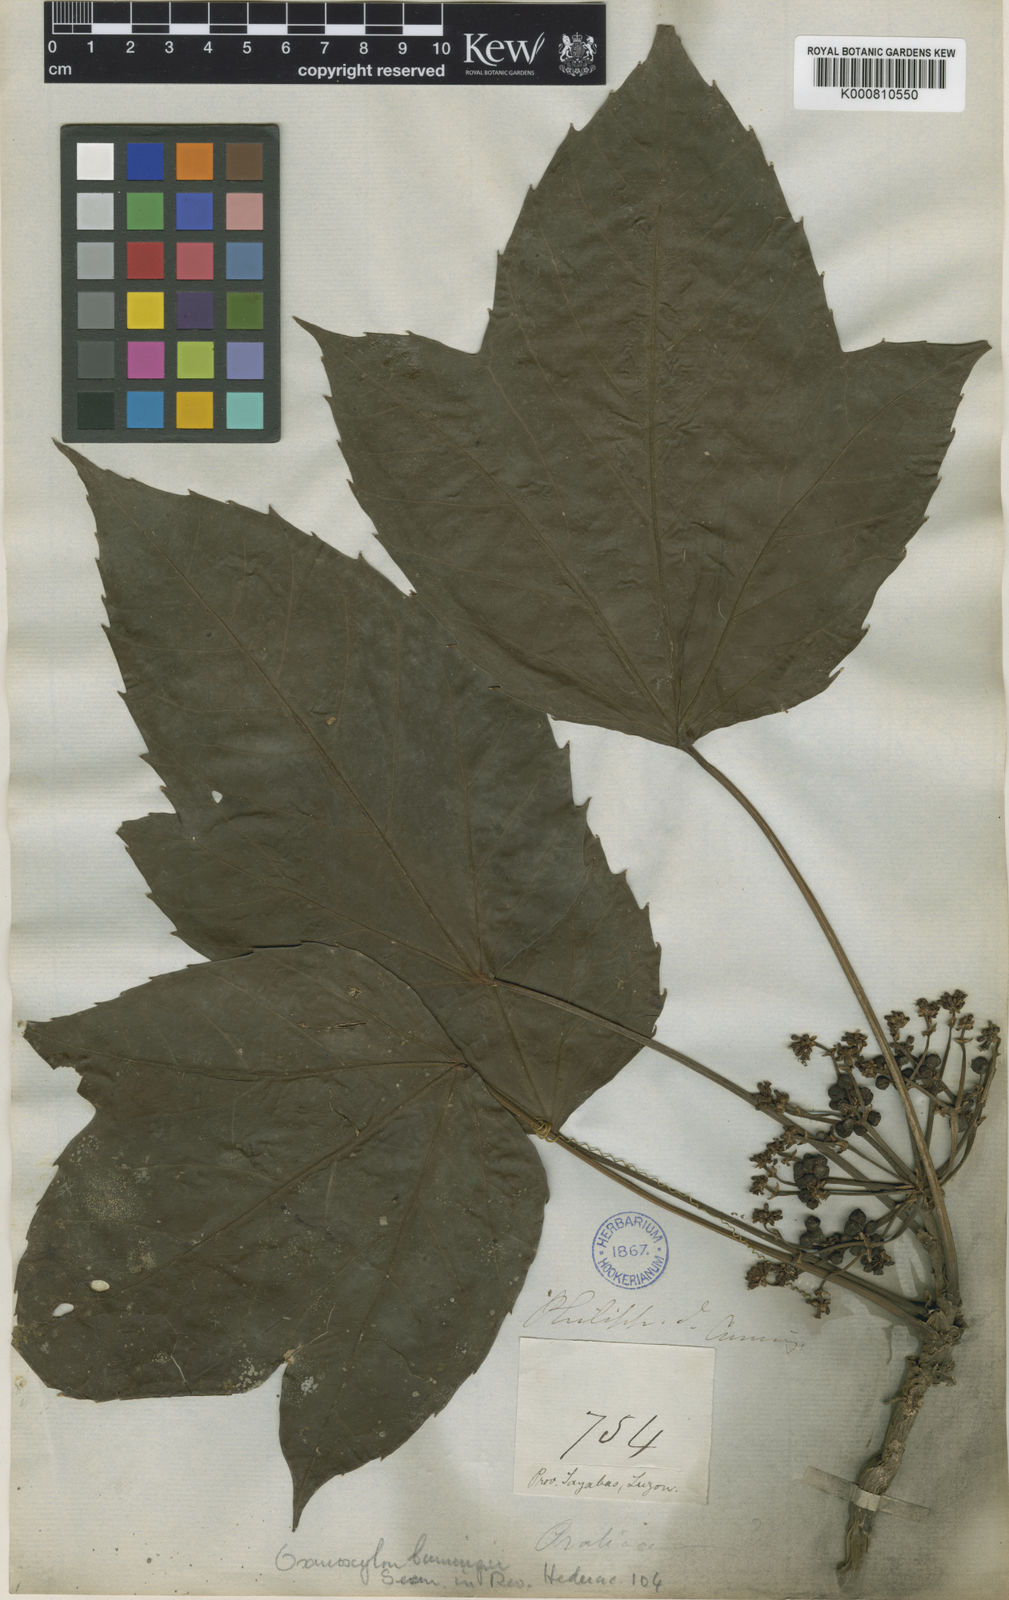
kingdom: Plantae
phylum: Tracheophyta
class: Magnoliopsida
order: Apiales
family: Araliaceae
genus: Osmoxylon
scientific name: Osmoxylon trilobatum
